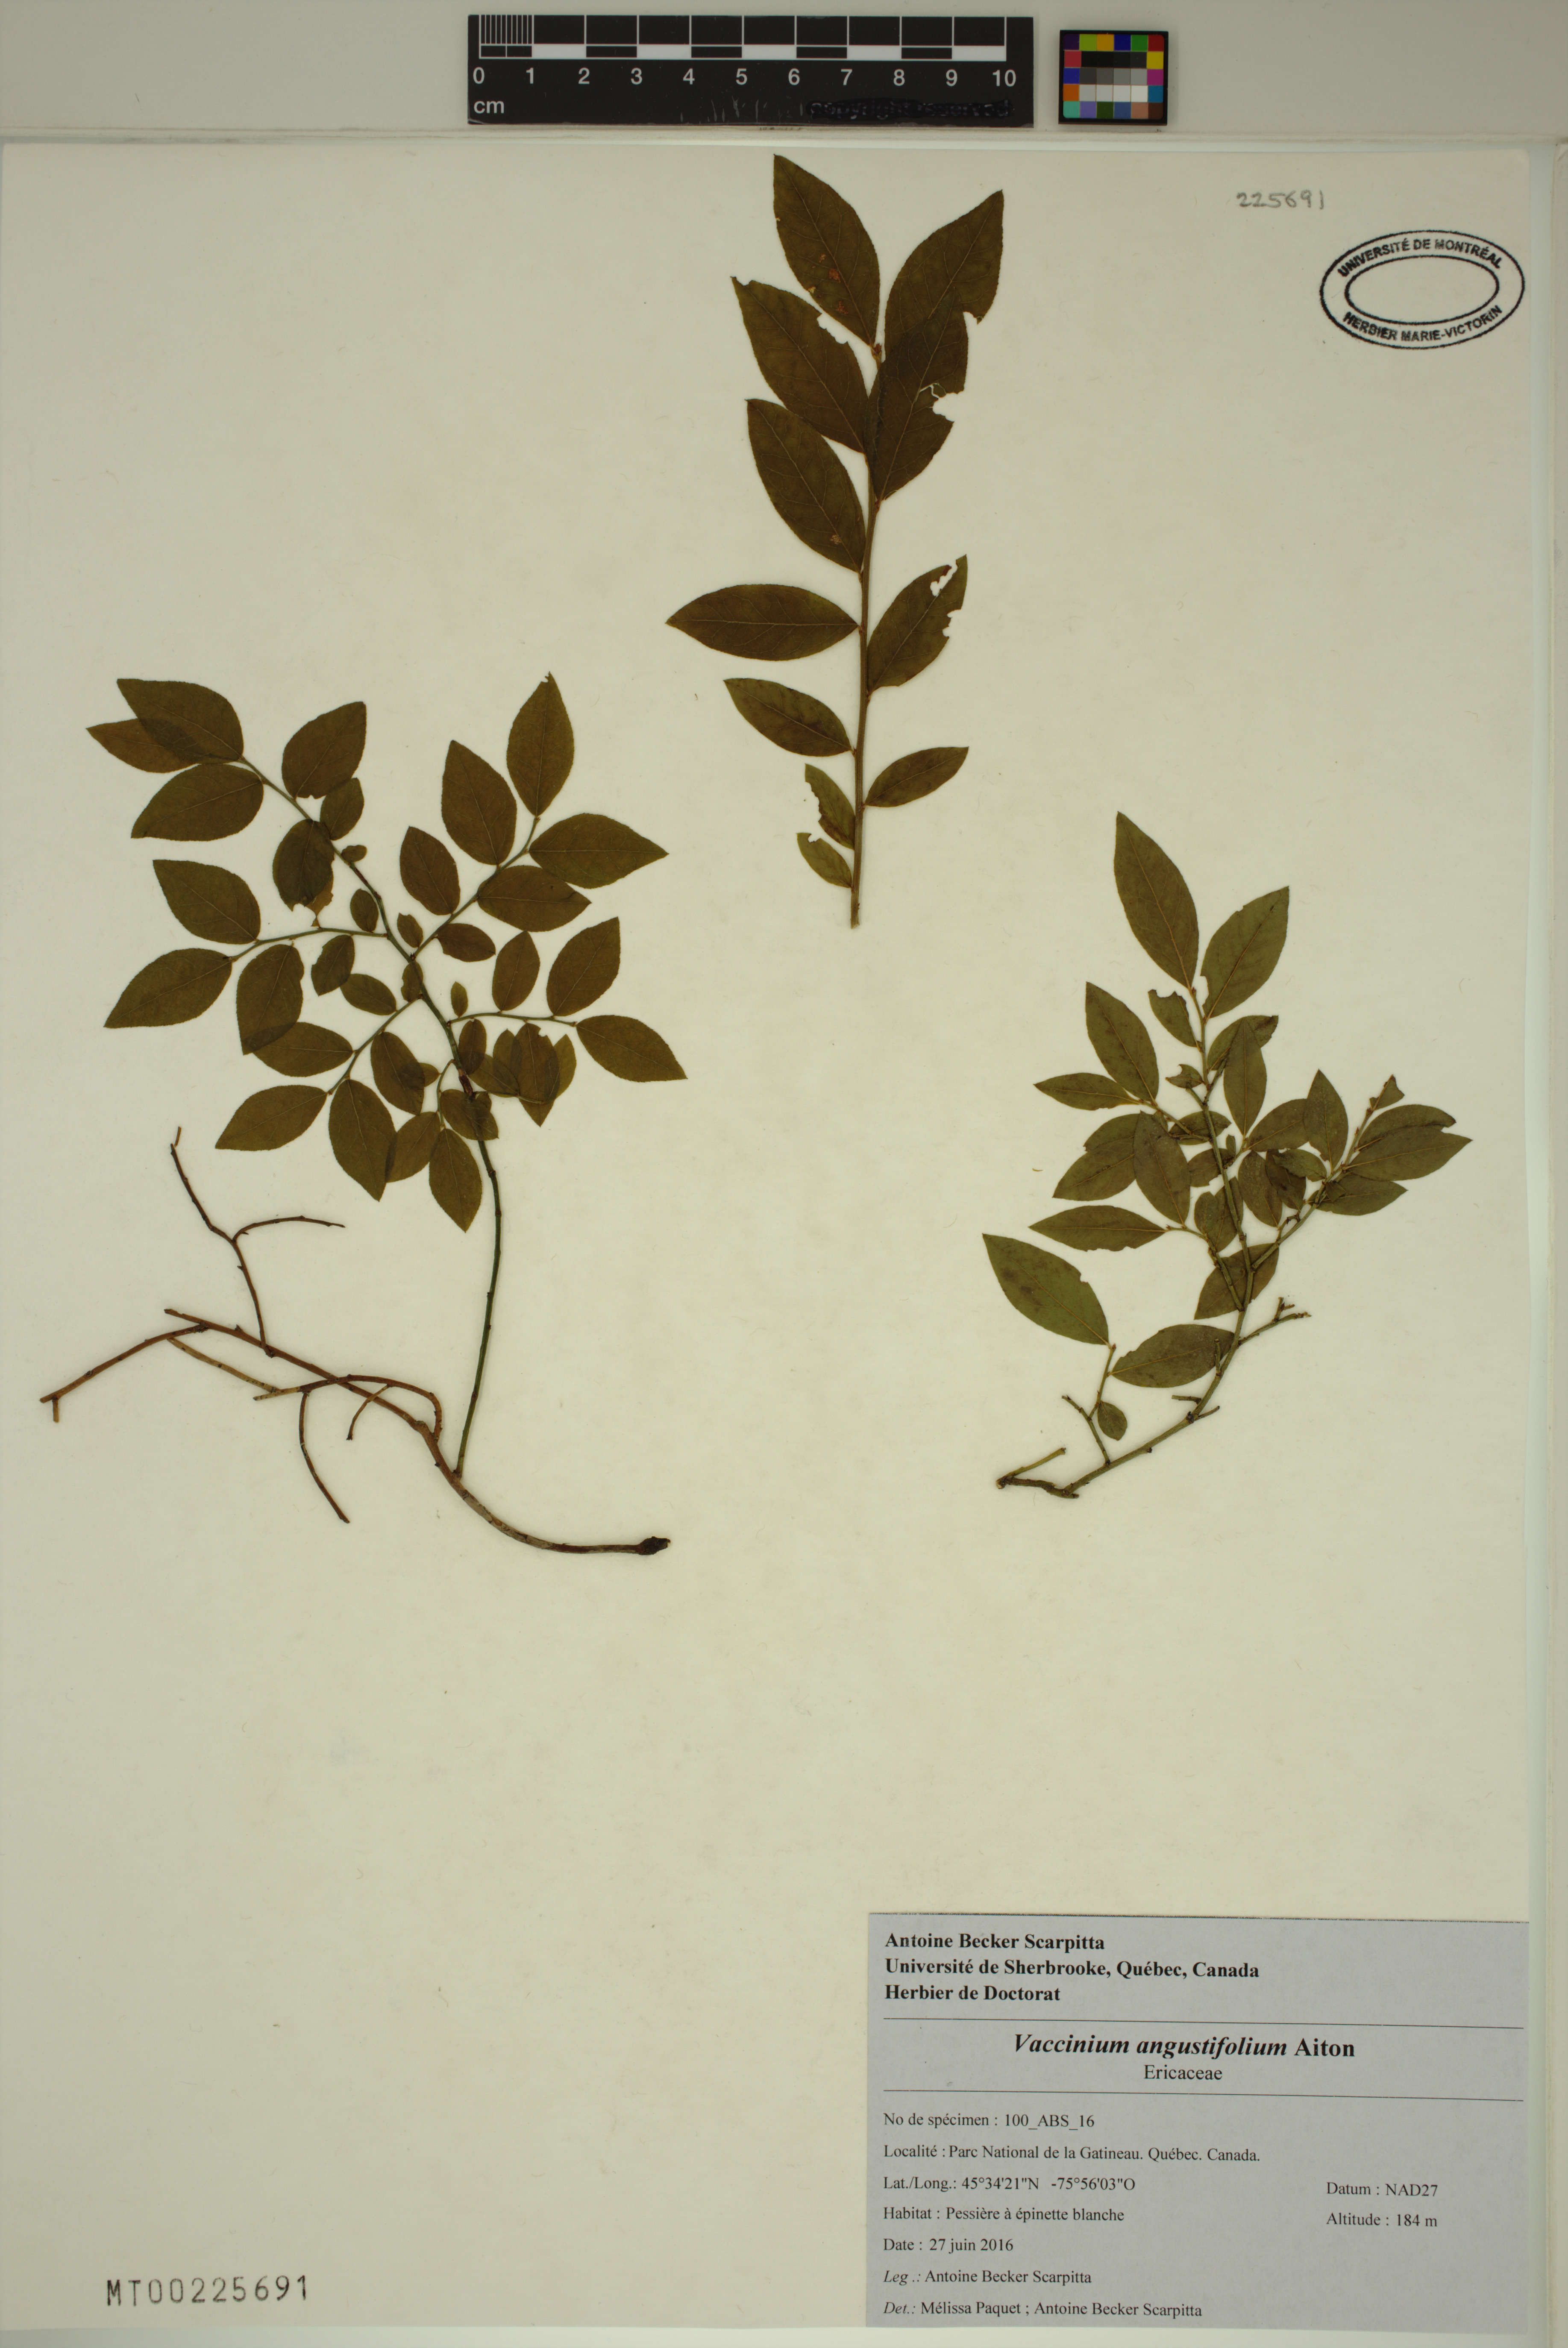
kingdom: Plantae
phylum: Tracheophyta
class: Magnoliopsida
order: Ericales
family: Ericaceae
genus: Vaccinium
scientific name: Vaccinium angustifolium
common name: Early lowbush blueberry
